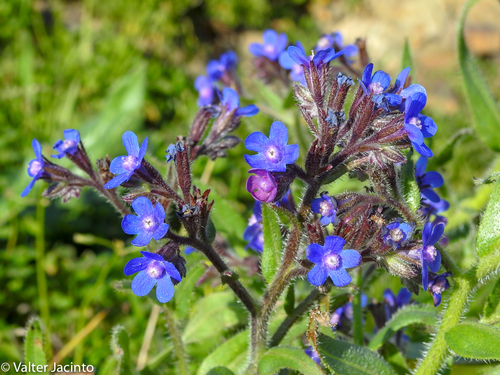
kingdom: Plantae
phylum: Tracheophyta
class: Magnoliopsida
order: Boraginales
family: Boraginaceae
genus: Anchusa
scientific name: Anchusa azurea
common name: Garden anchusa
